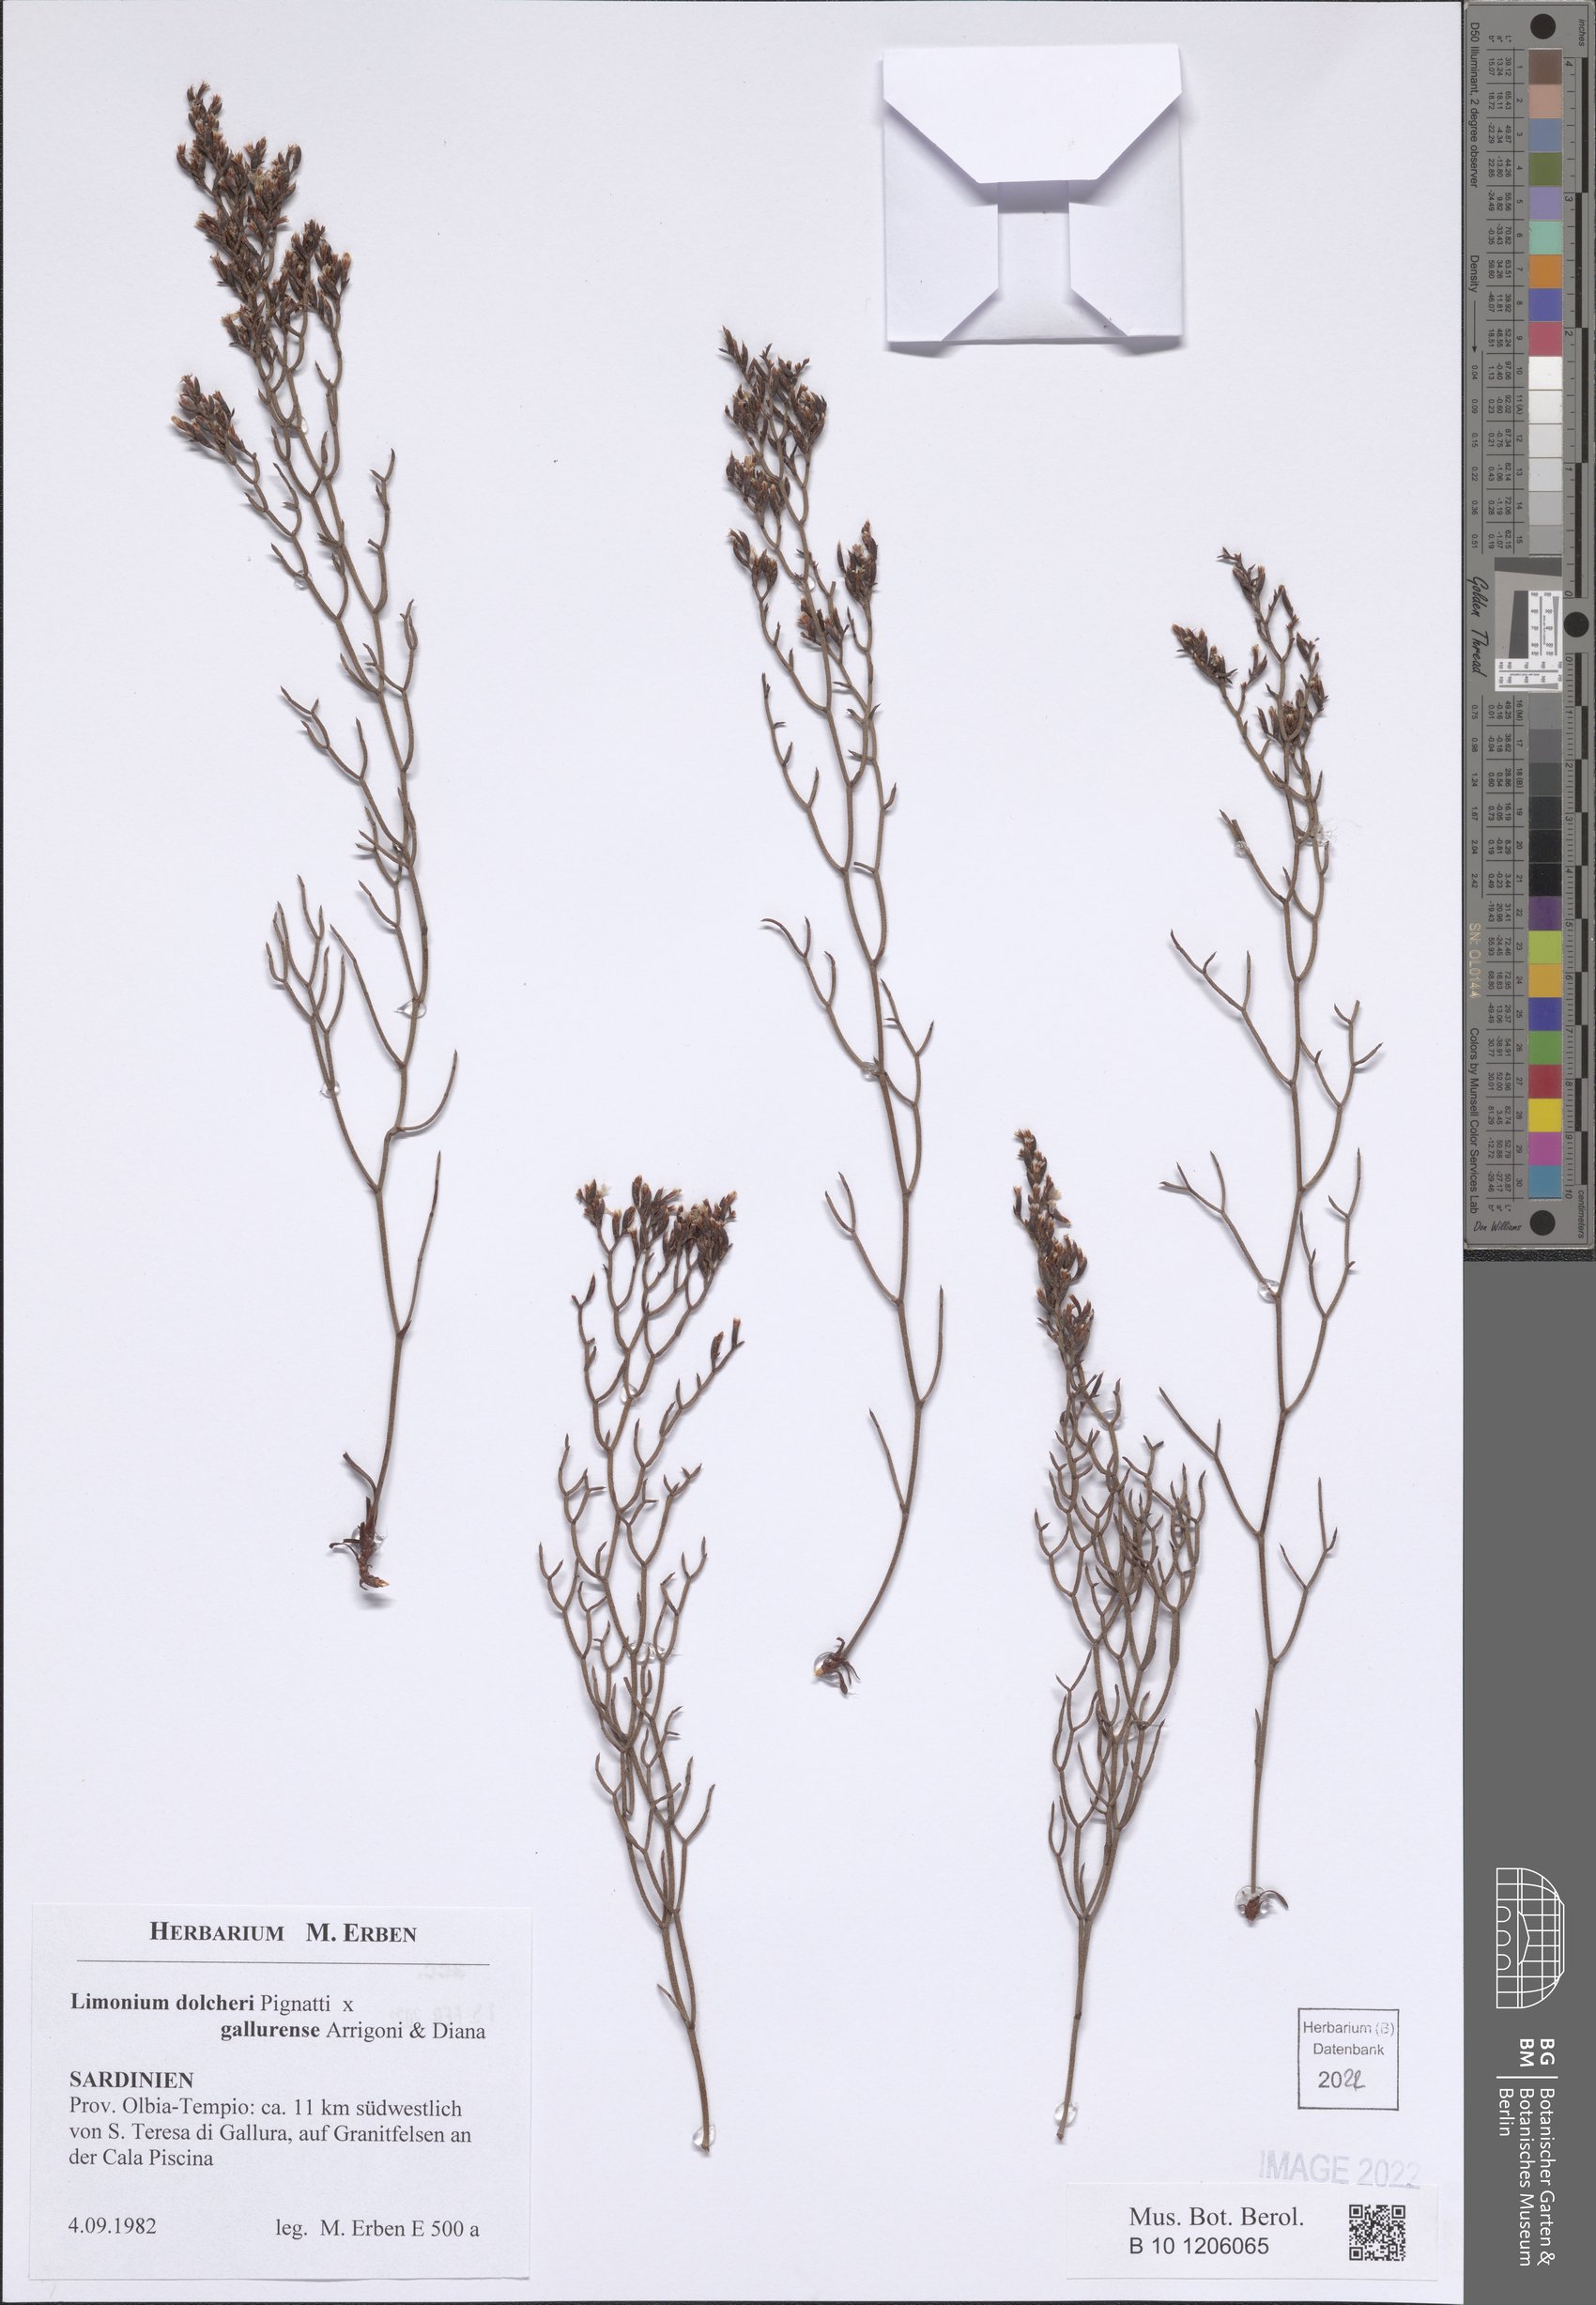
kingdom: Plantae
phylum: Tracheophyta
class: Magnoliopsida
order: Caryophyllales
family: Plumbaginaceae
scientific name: Plumbaginaceae
